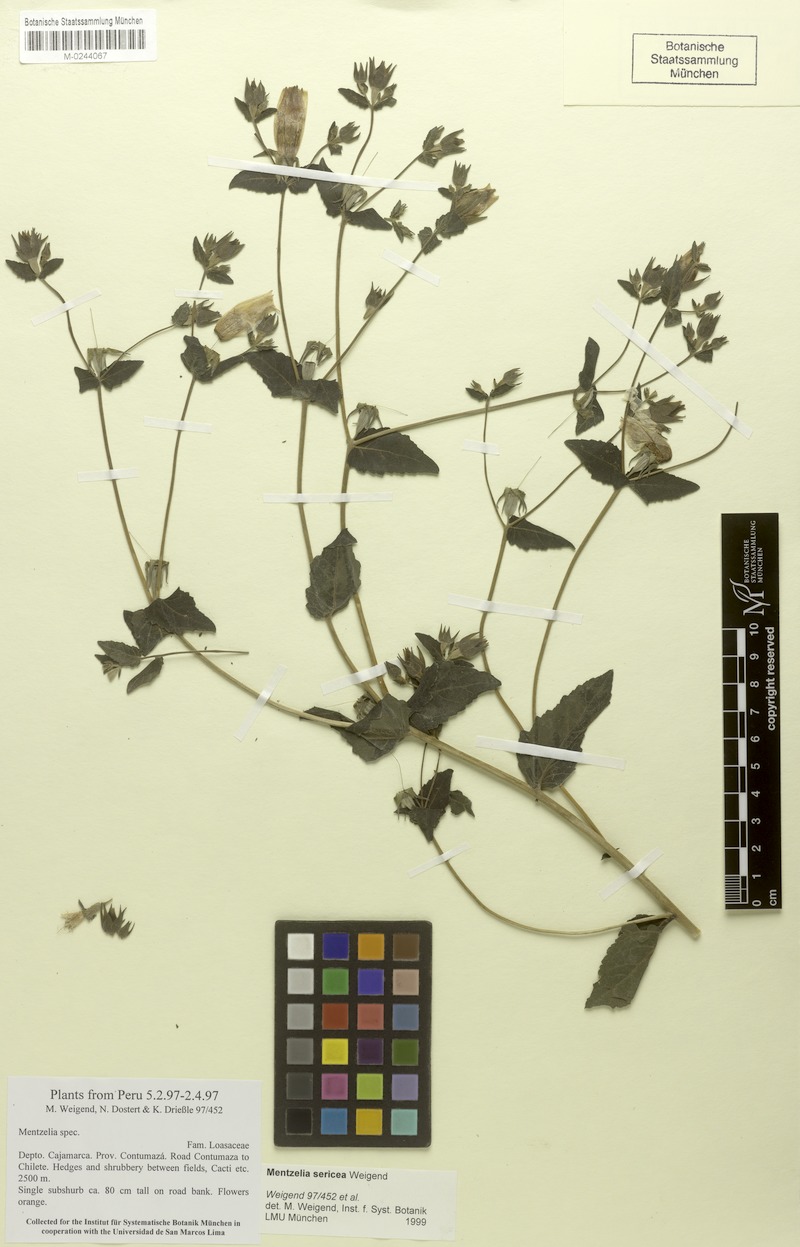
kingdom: Plantae
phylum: Tracheophyta
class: Magnoliopsida
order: Cornales
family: Loasaceae
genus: Mentzelia
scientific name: Mentzelia sericea
